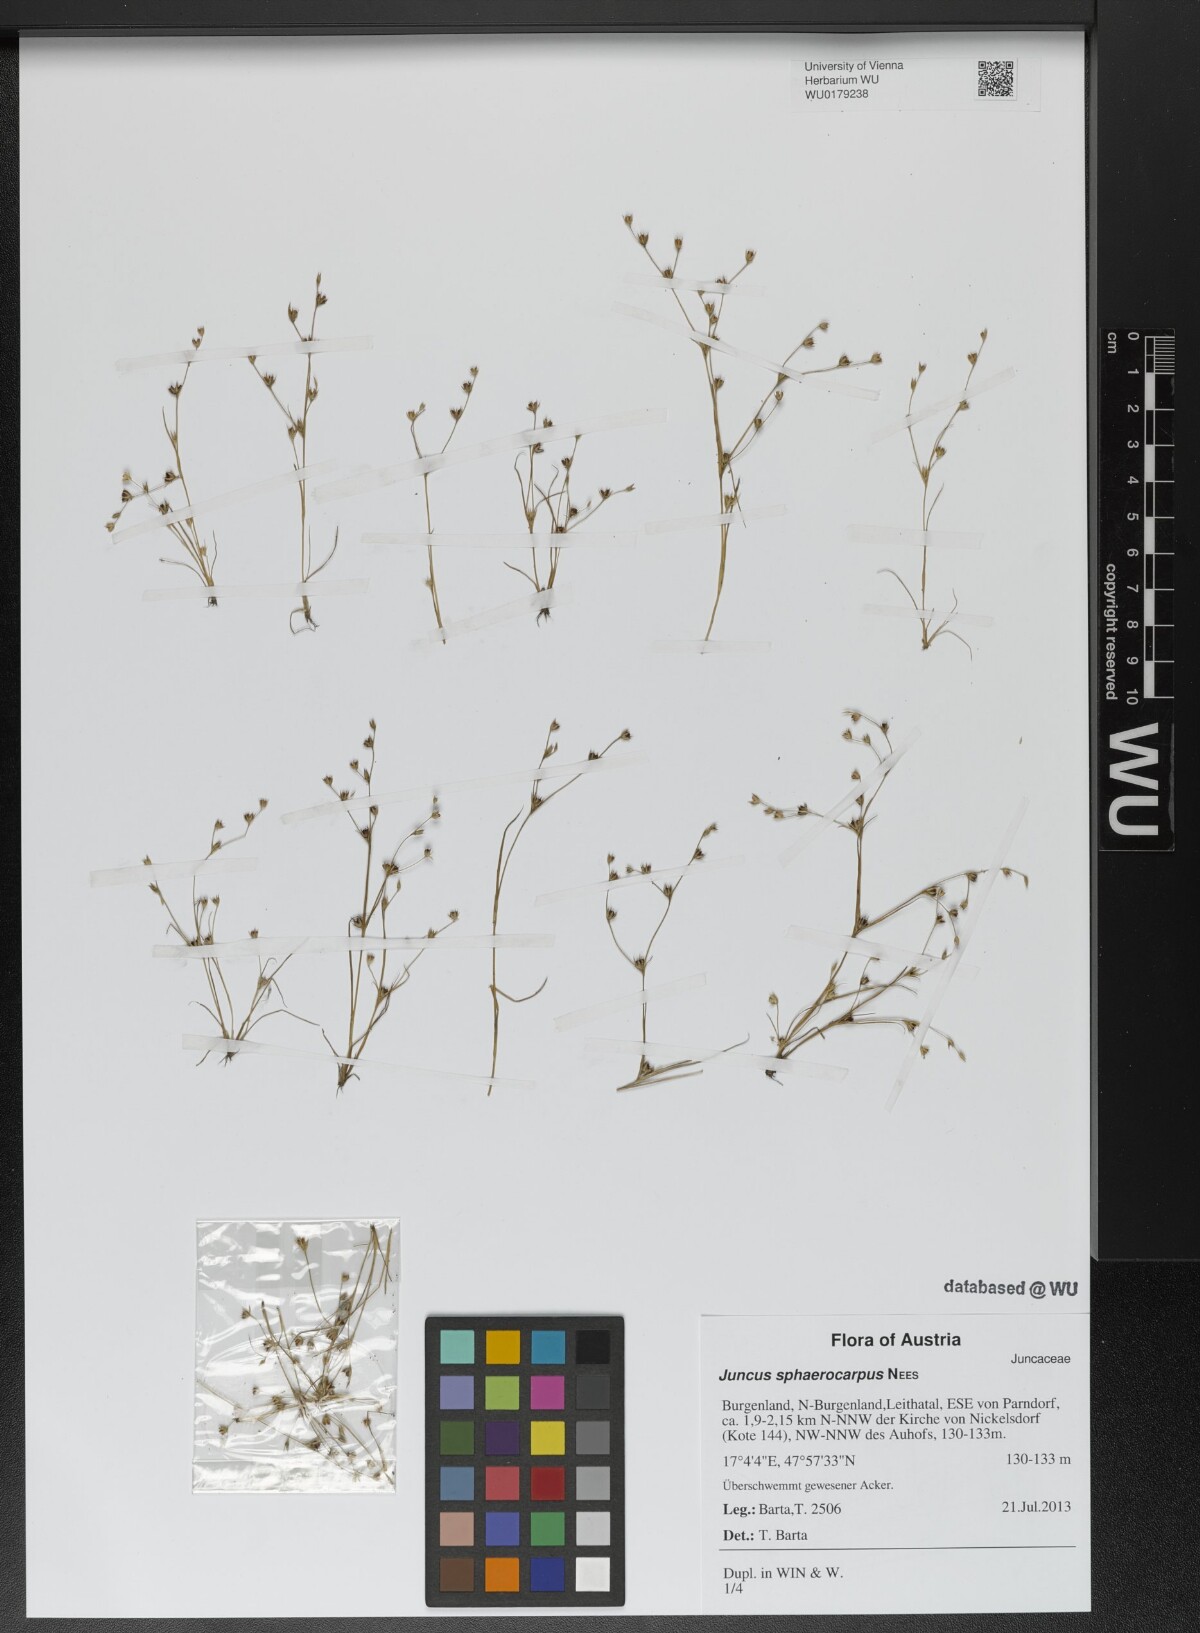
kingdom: Plantae
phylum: Tracheophyta
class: Liliopsida
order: Poales
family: Juncaceae
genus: Juncus
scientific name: Juncus sphaerocarpus
